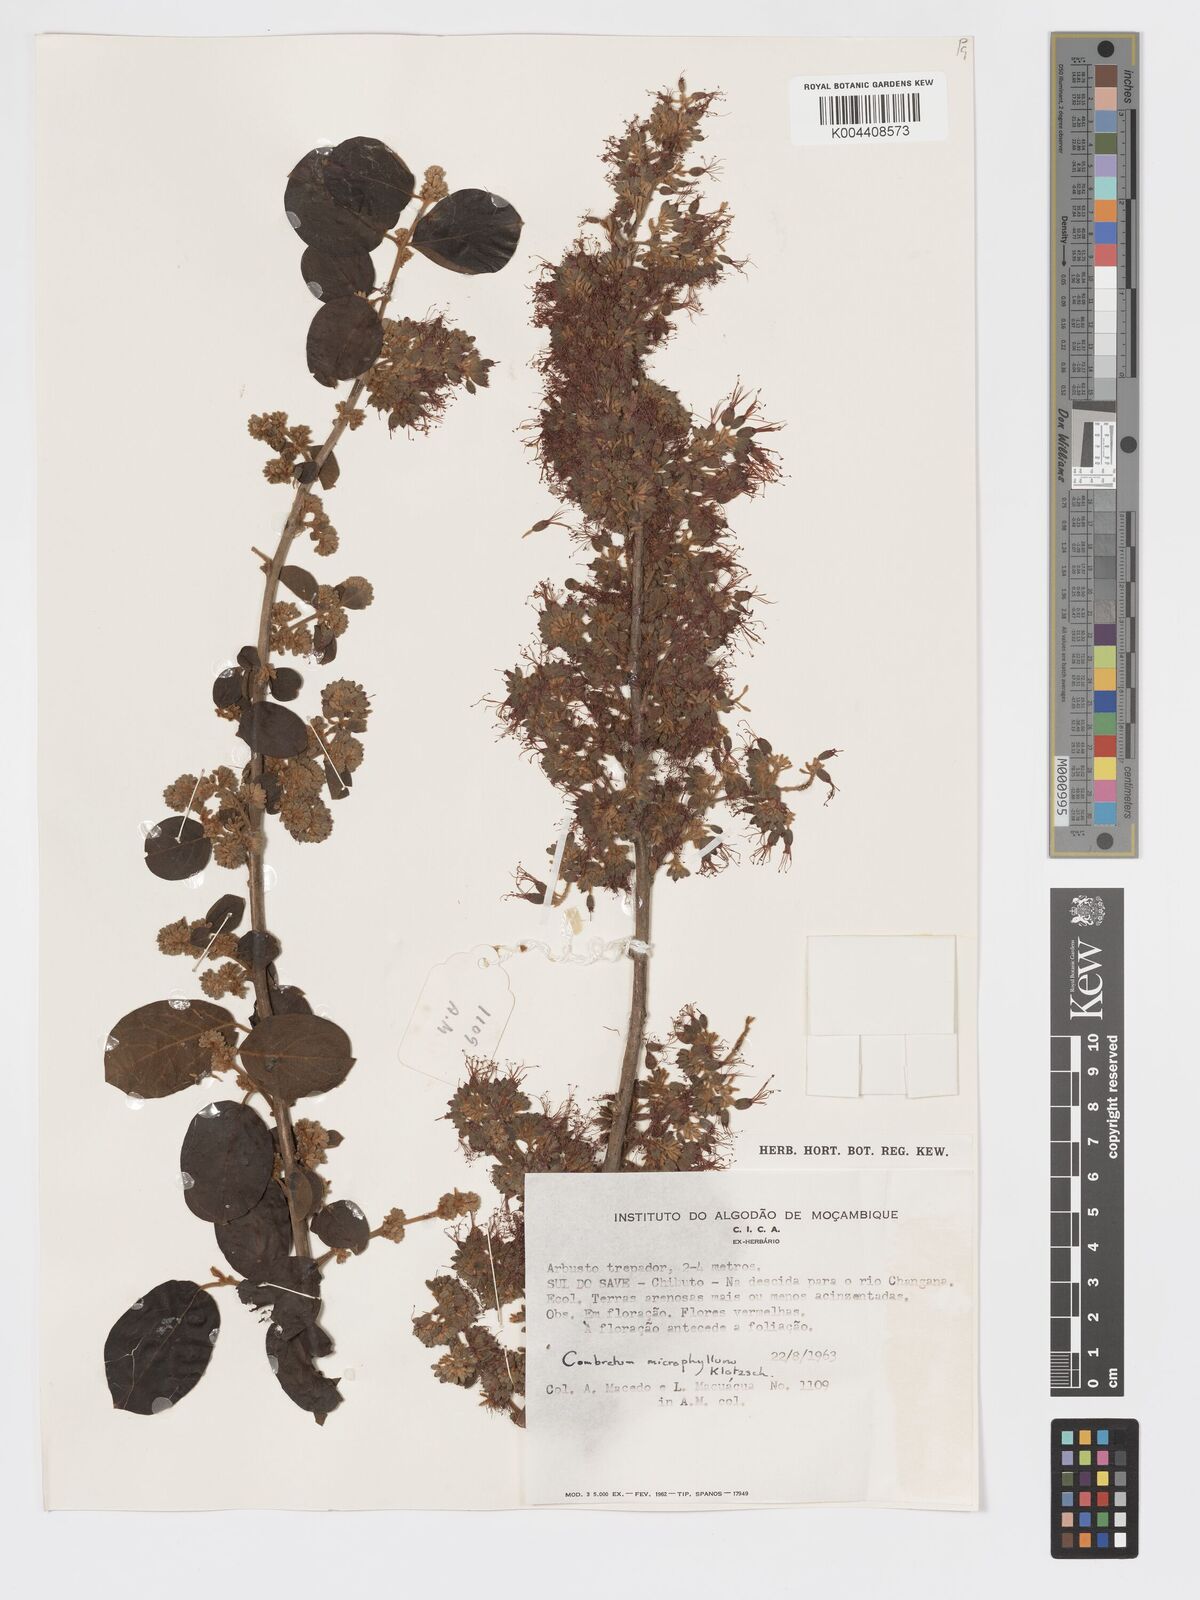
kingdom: Plantae
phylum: Tracheophyta
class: Magnoliopsida
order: Myrtales
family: Combretaceae
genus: Combretum
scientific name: Combretum microphyllum
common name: Burningbush
